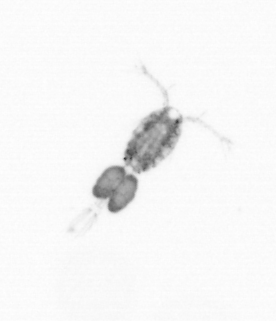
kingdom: Animalia
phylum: Arthropoda
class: Copepoda
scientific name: Copepoda
